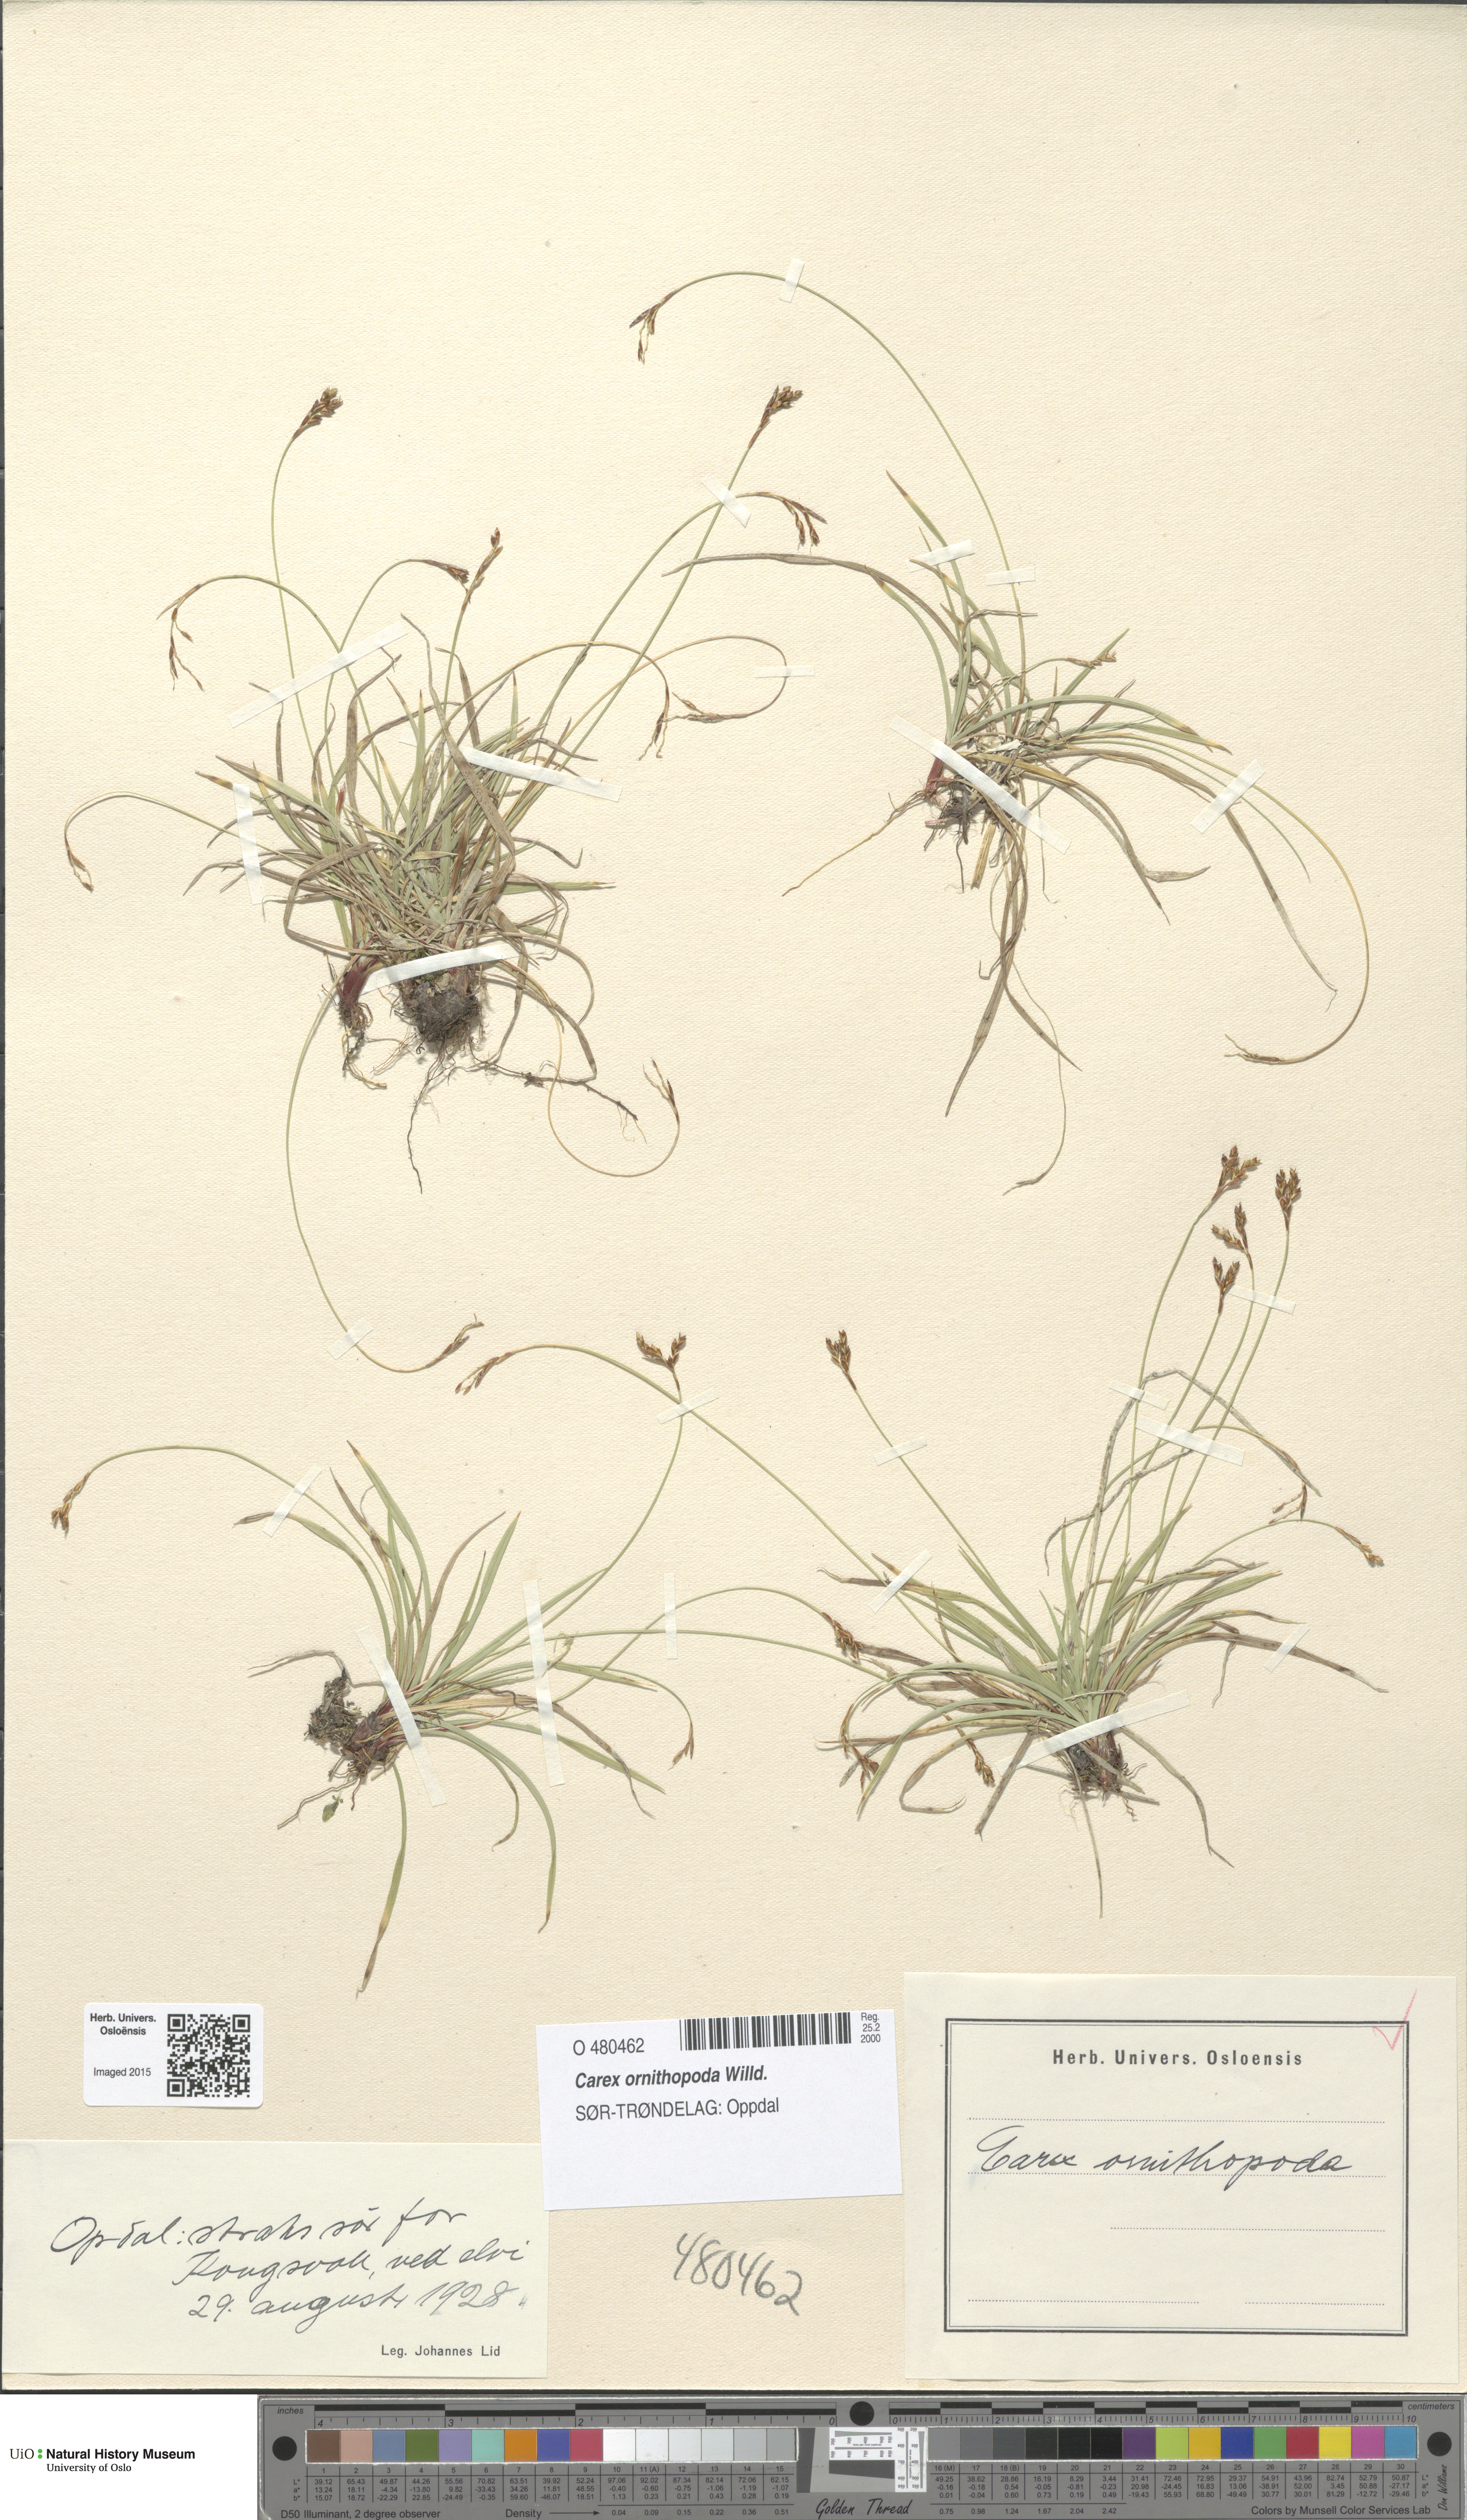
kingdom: Plantae
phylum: Tracheophyta
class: Liliopsida
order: Poales
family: Cyperaceae
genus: Carex
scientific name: Carex ornithopoda
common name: Bird's-foot sedge
